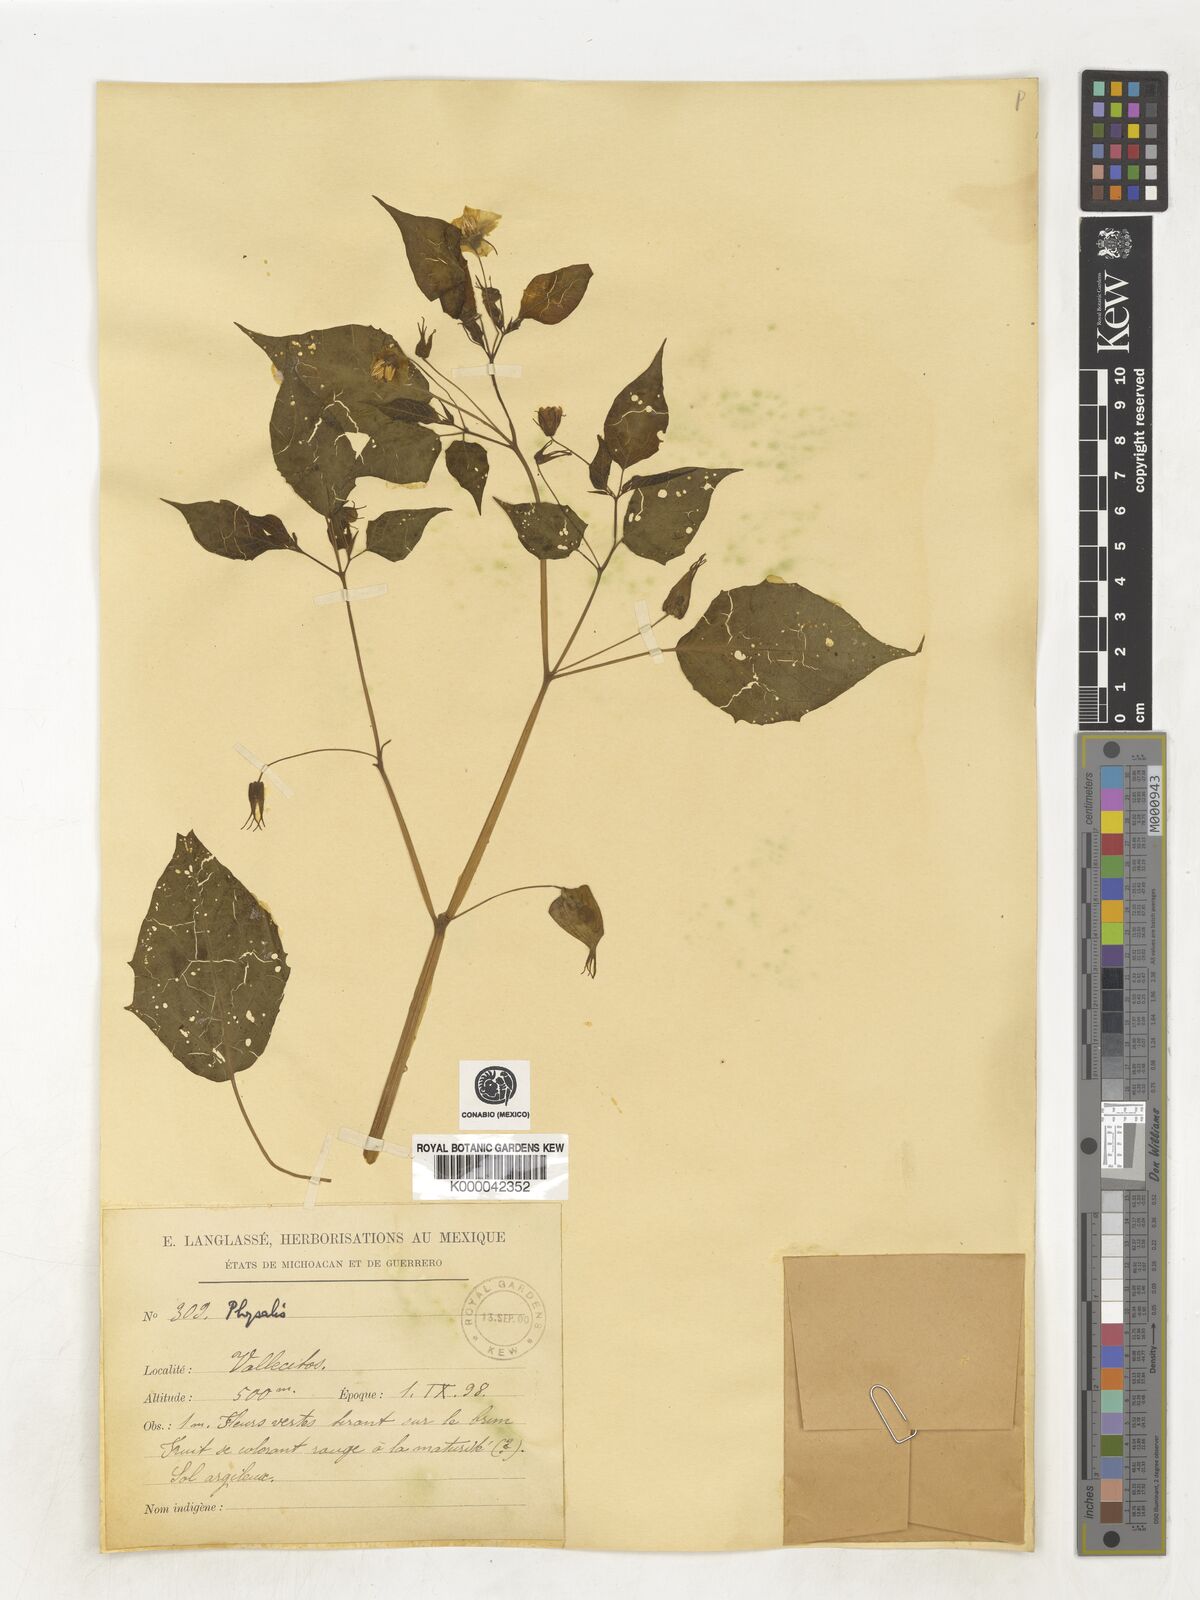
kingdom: Plantae
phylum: Tracheophyta
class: Magnoliopsida
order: Solanales
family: Solanaceae
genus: Physalis
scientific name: Physalis
